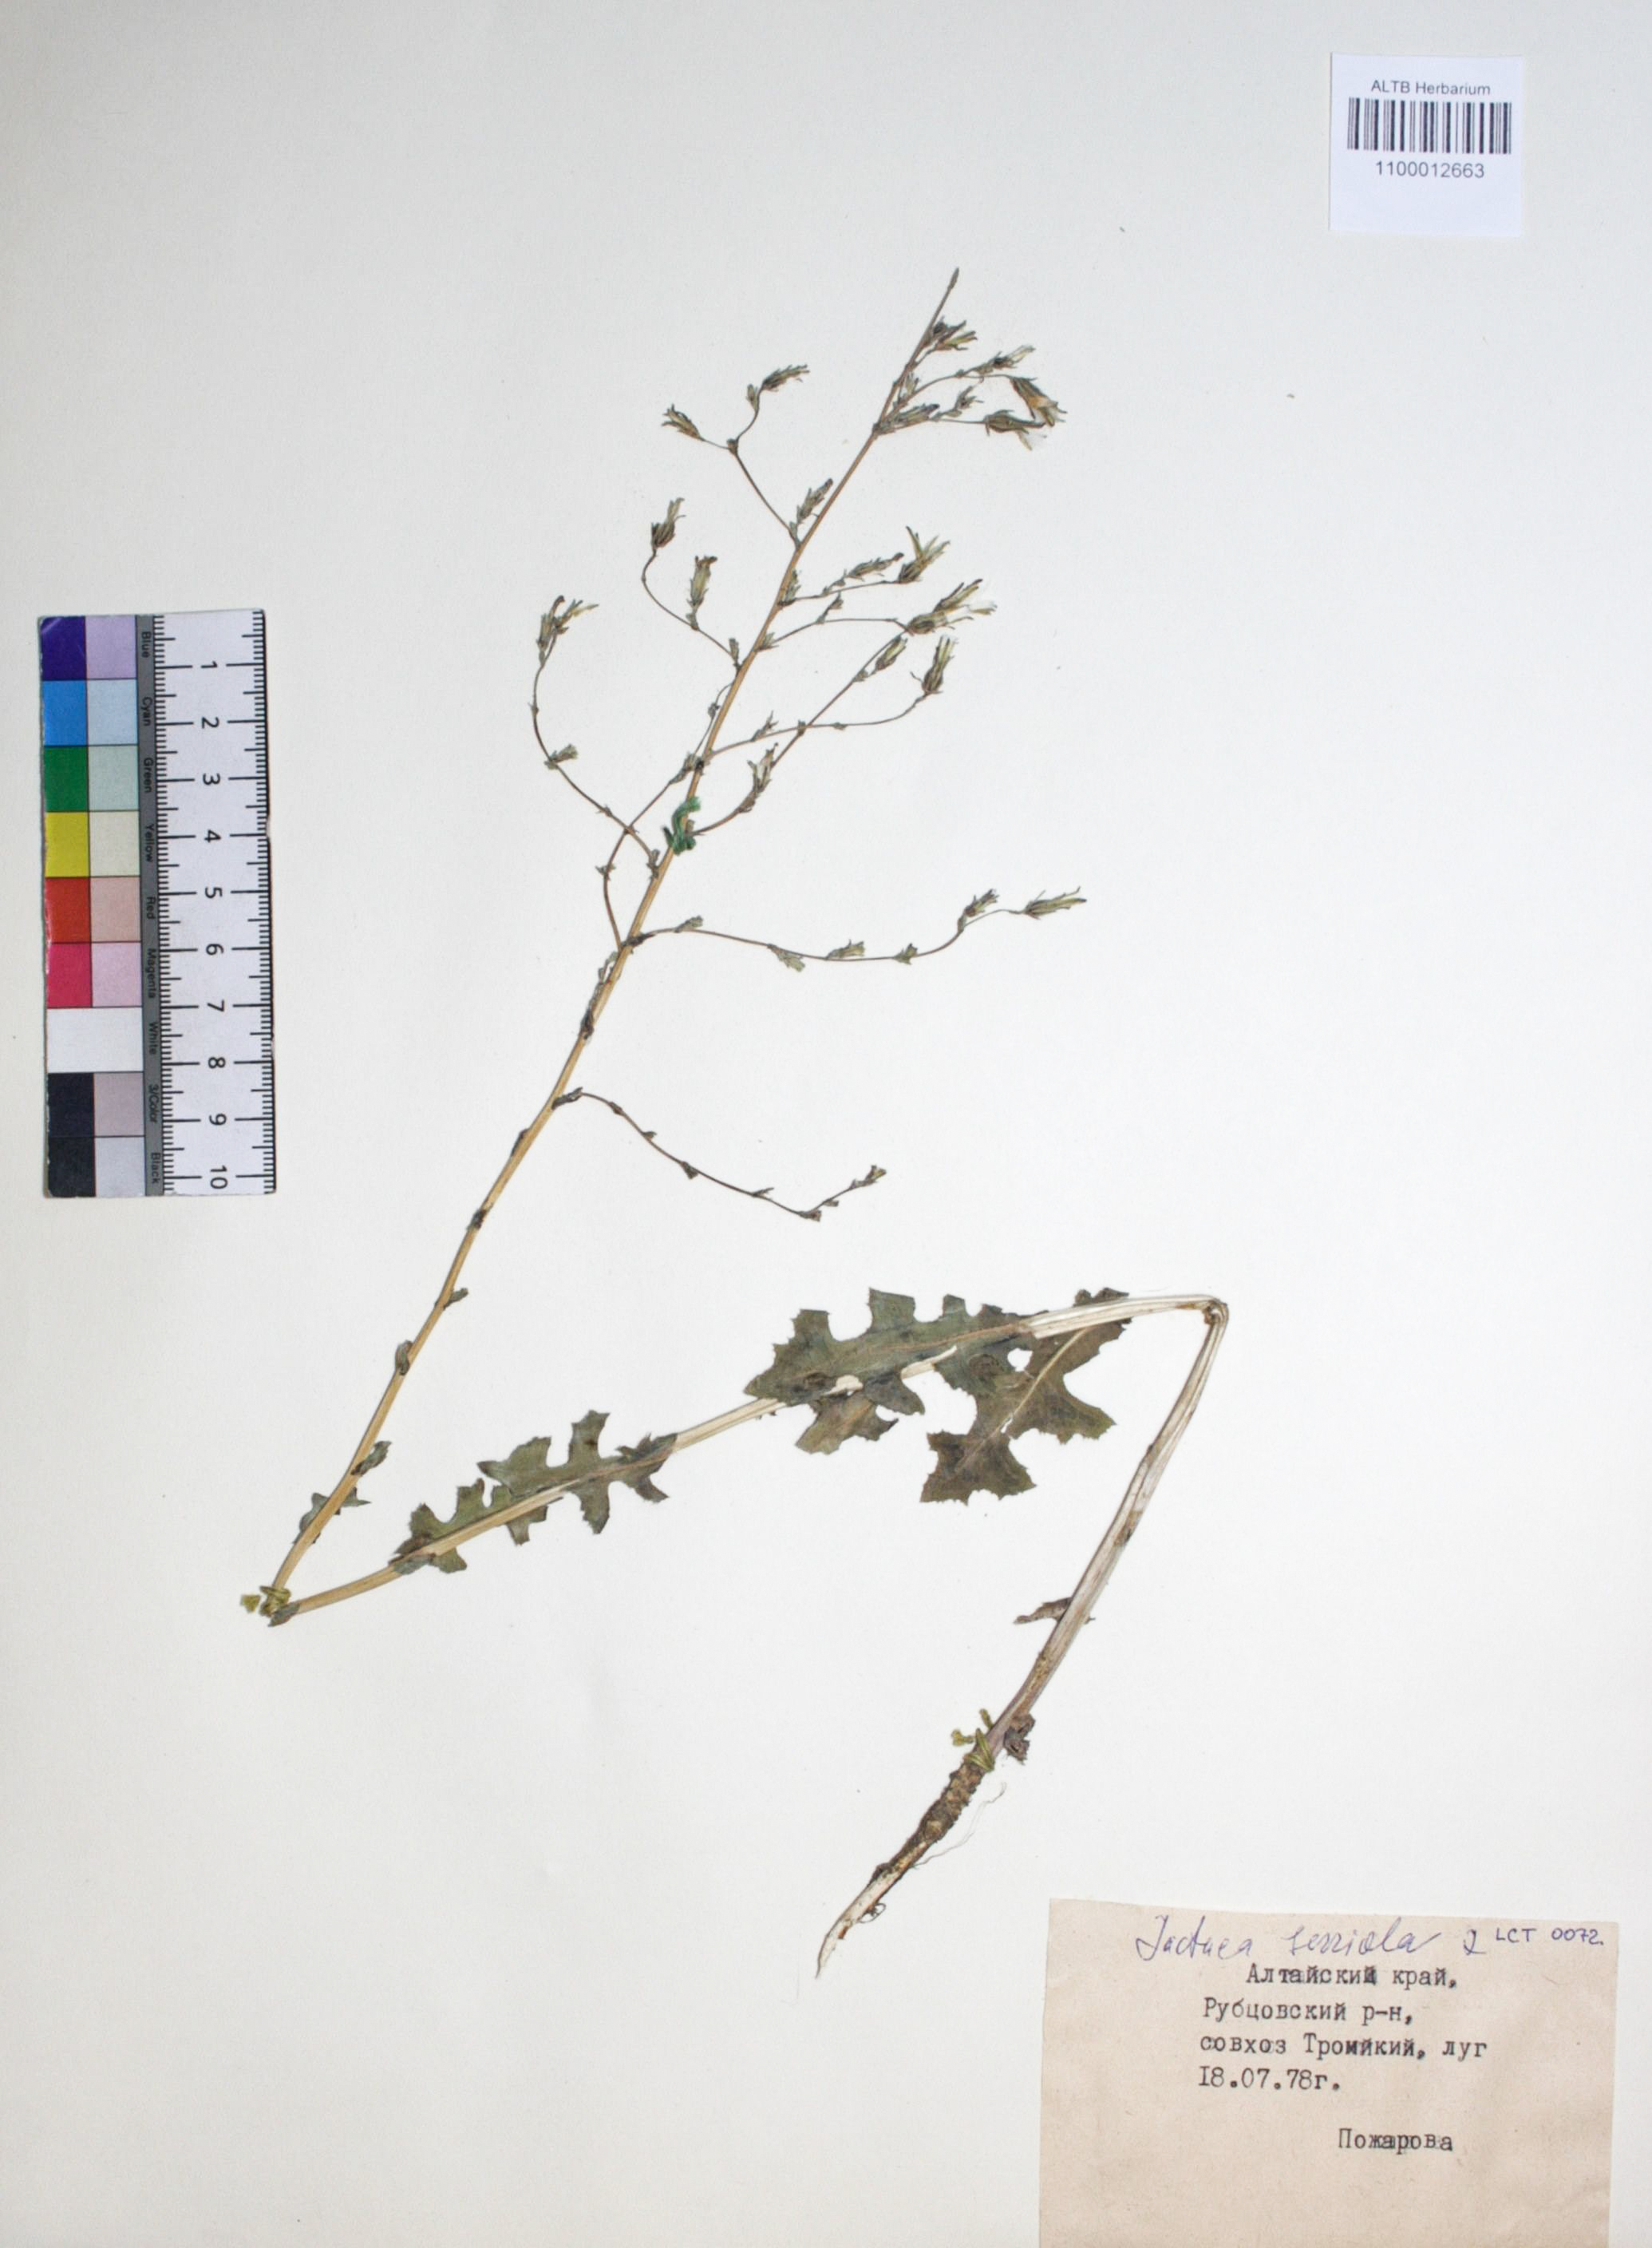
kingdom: Plantae
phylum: Tracheophyta
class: Magnoliopsida
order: Asterales
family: Asteraceae
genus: Lactuca
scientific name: Lactuca serriola
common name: Prickly lettuce
